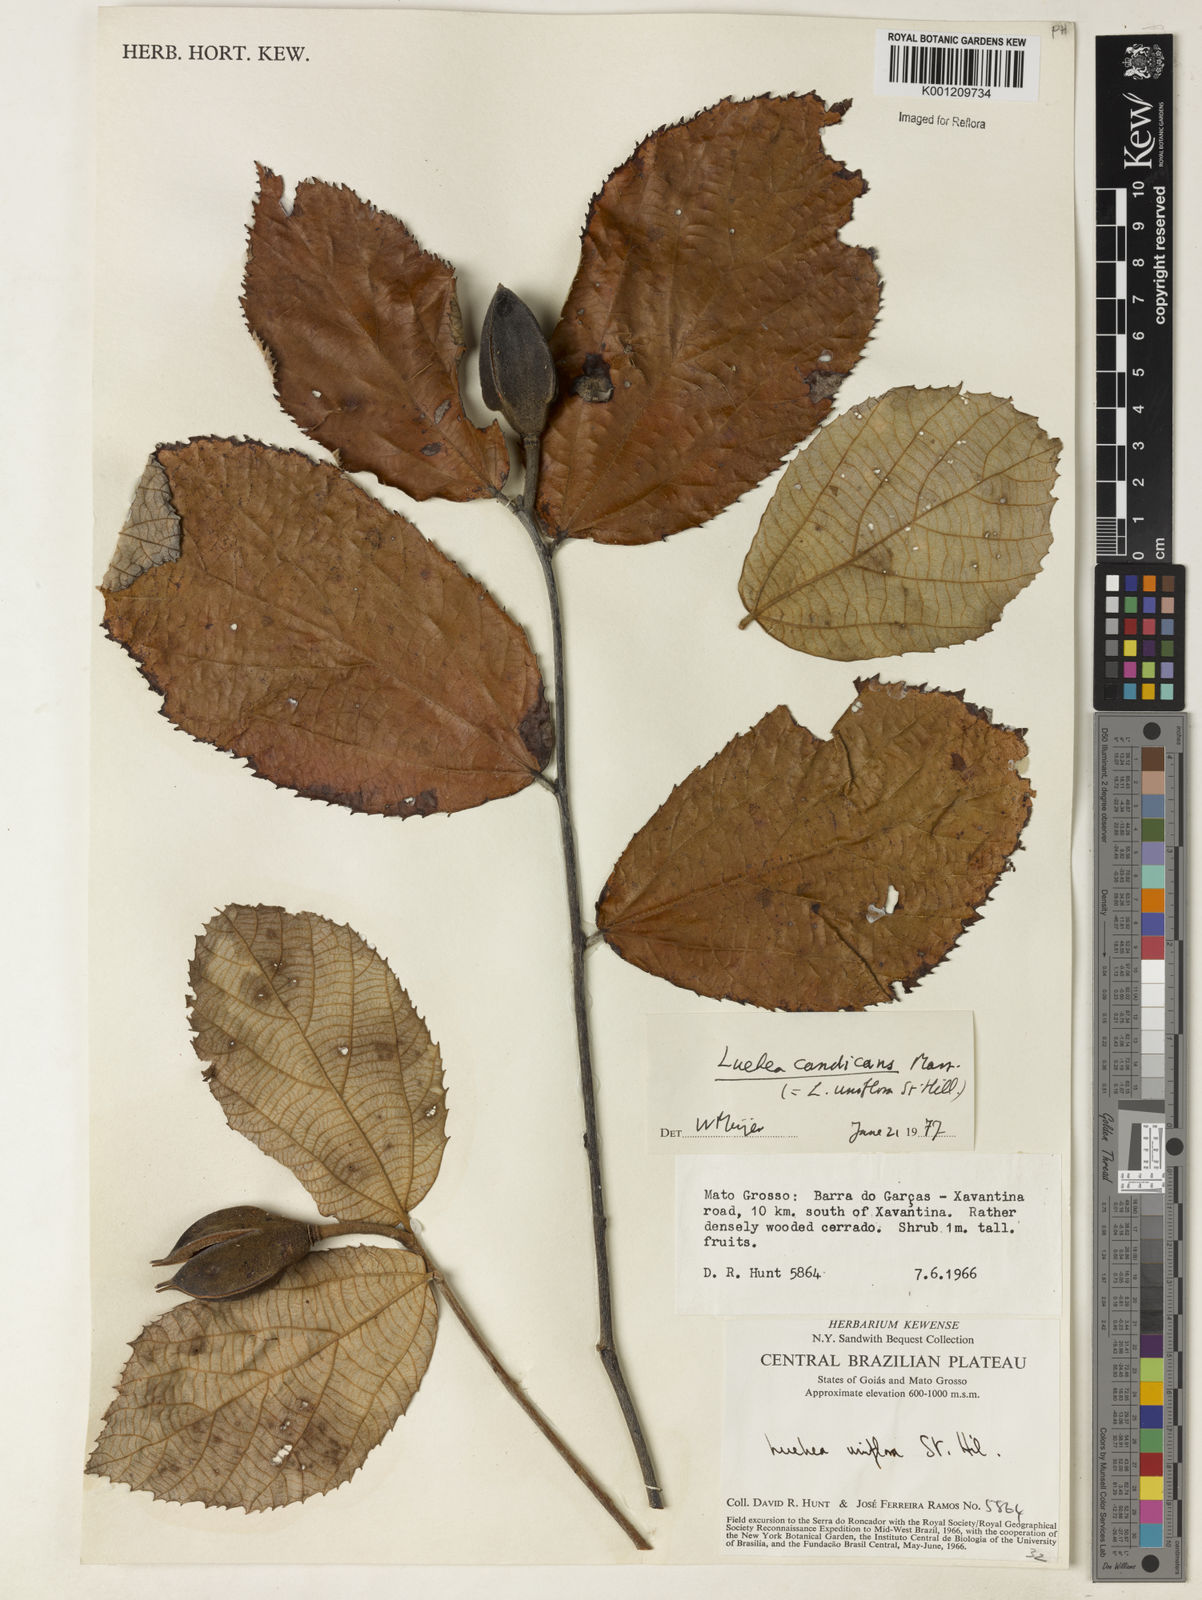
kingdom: Plantae
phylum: Tracheophyta
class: Magnoliopsida
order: Malvales
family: Malvaceae
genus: Luehea
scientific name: Luehea candicans
